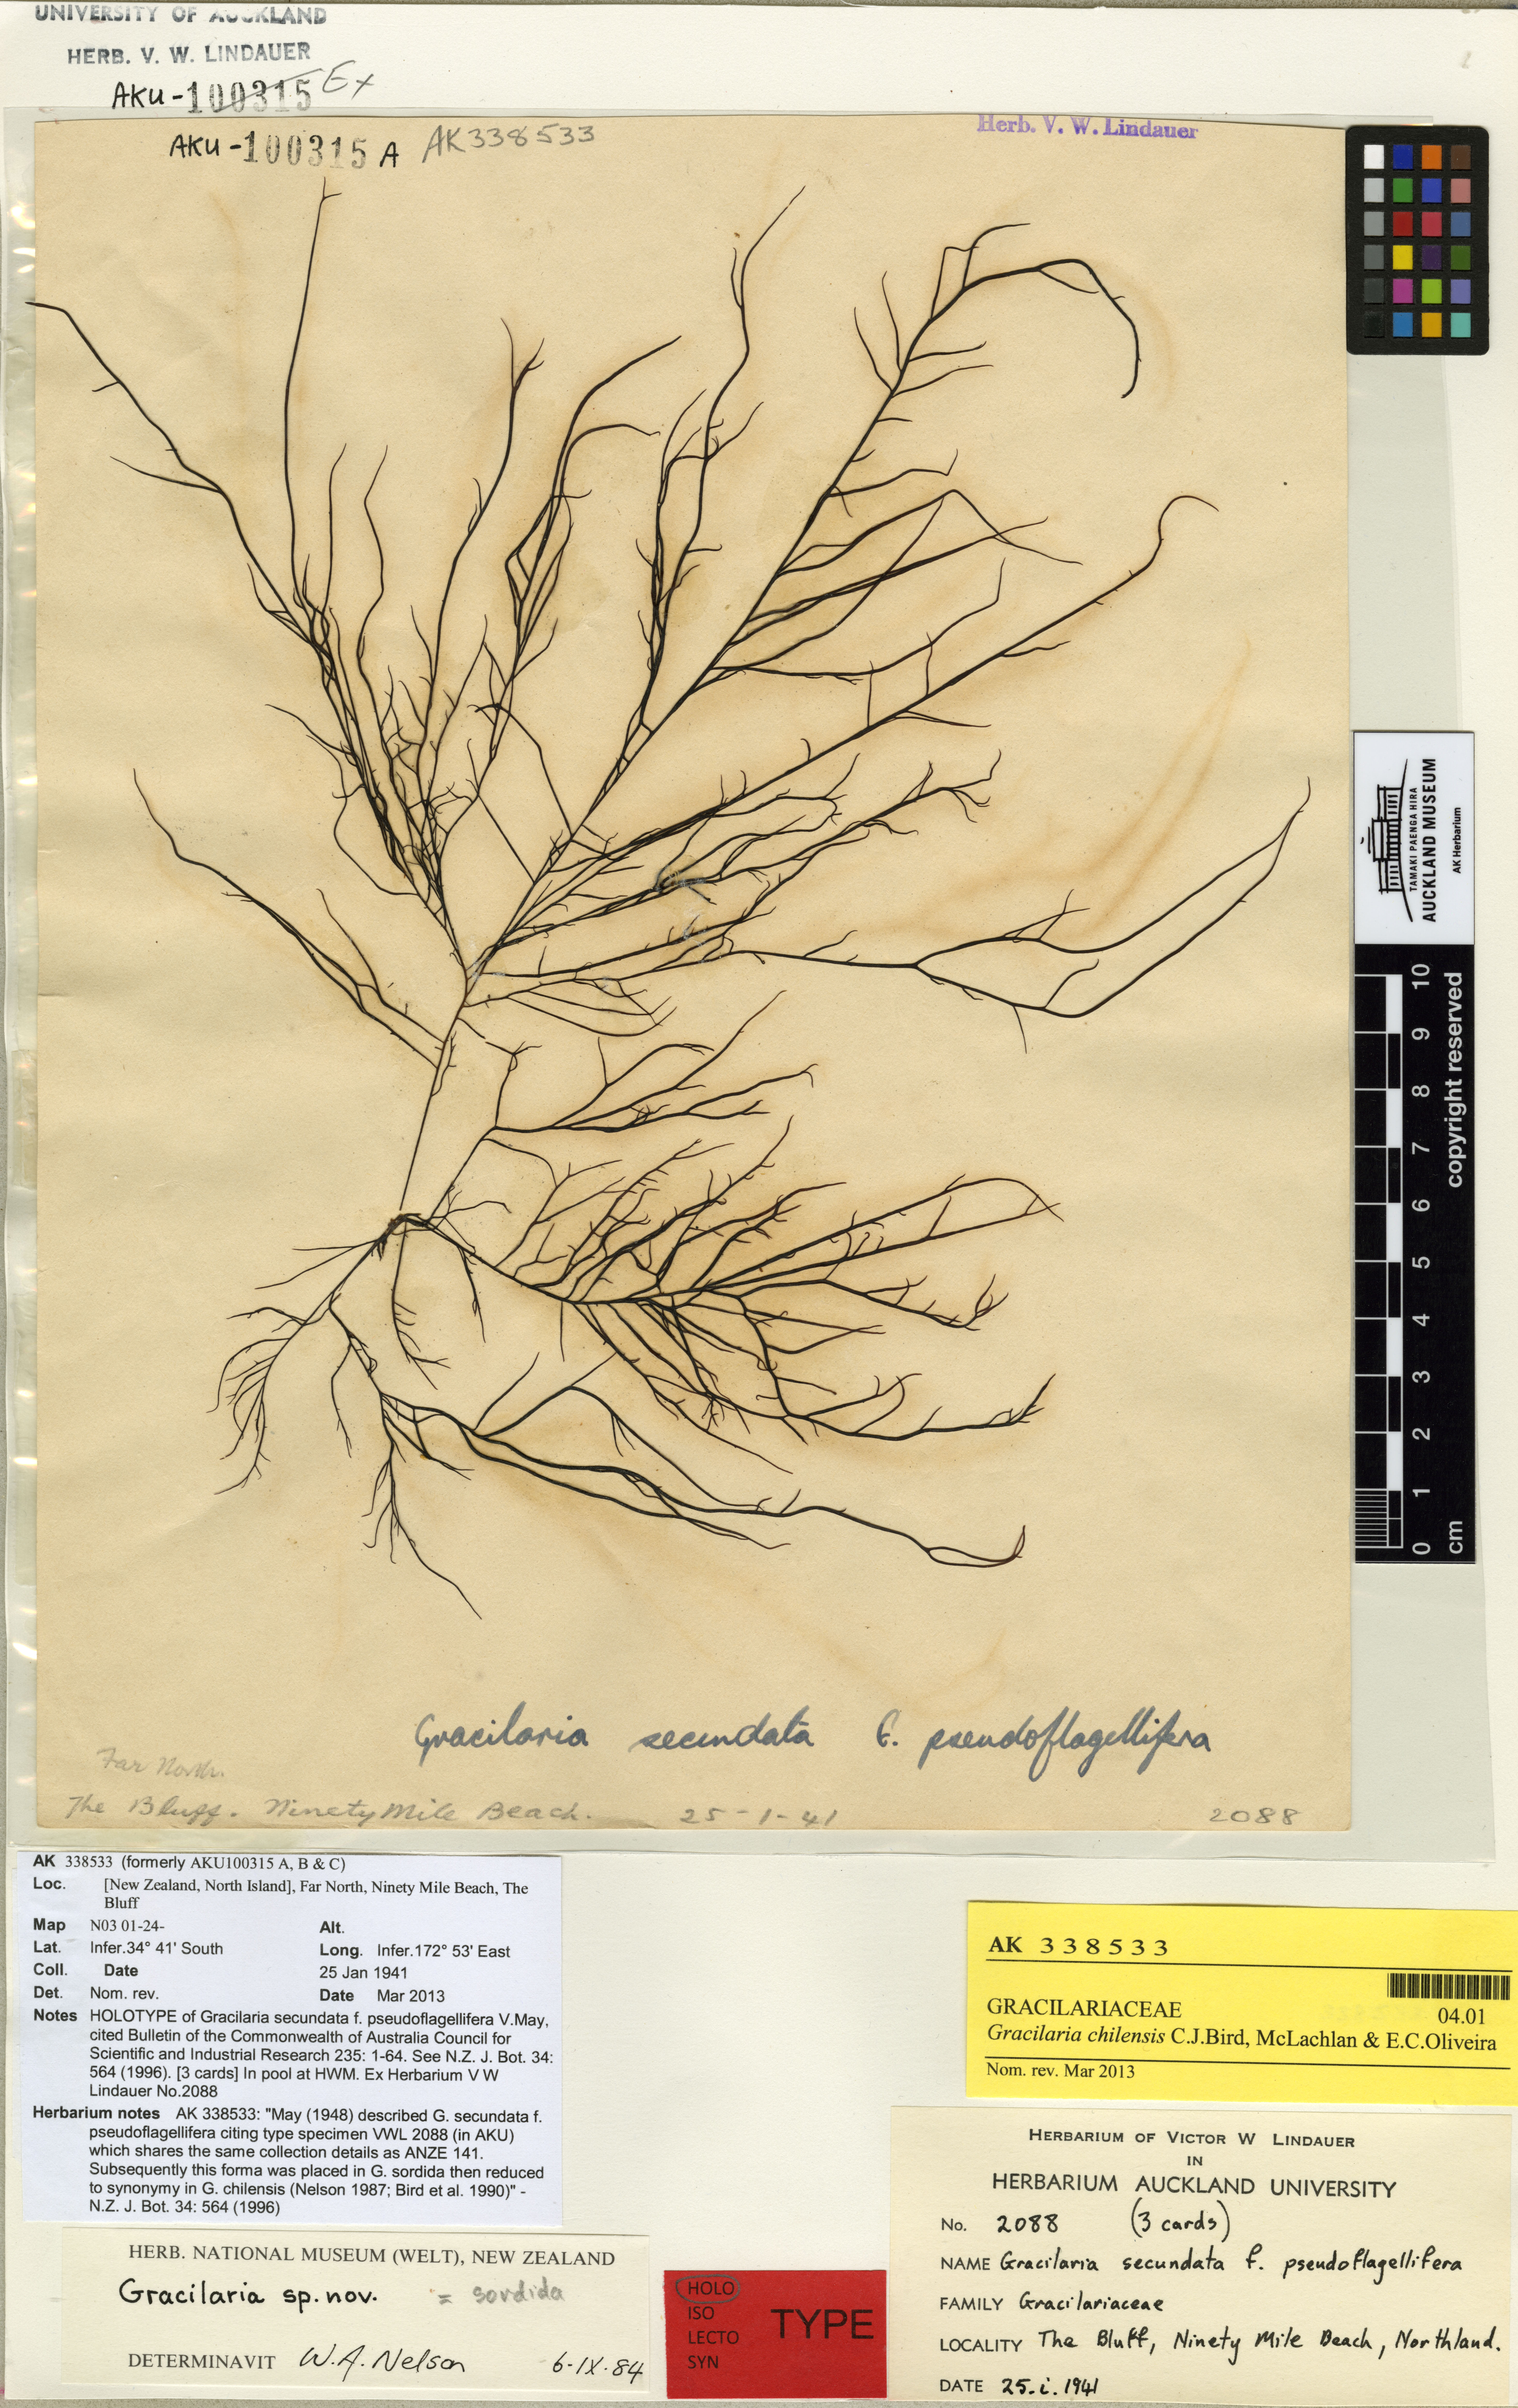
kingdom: Plantae
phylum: Rhodophyta
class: Florideophyceae
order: Gracilariales
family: Gracilariaceae
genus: Gracilaria
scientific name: Gracilaria chilensis
